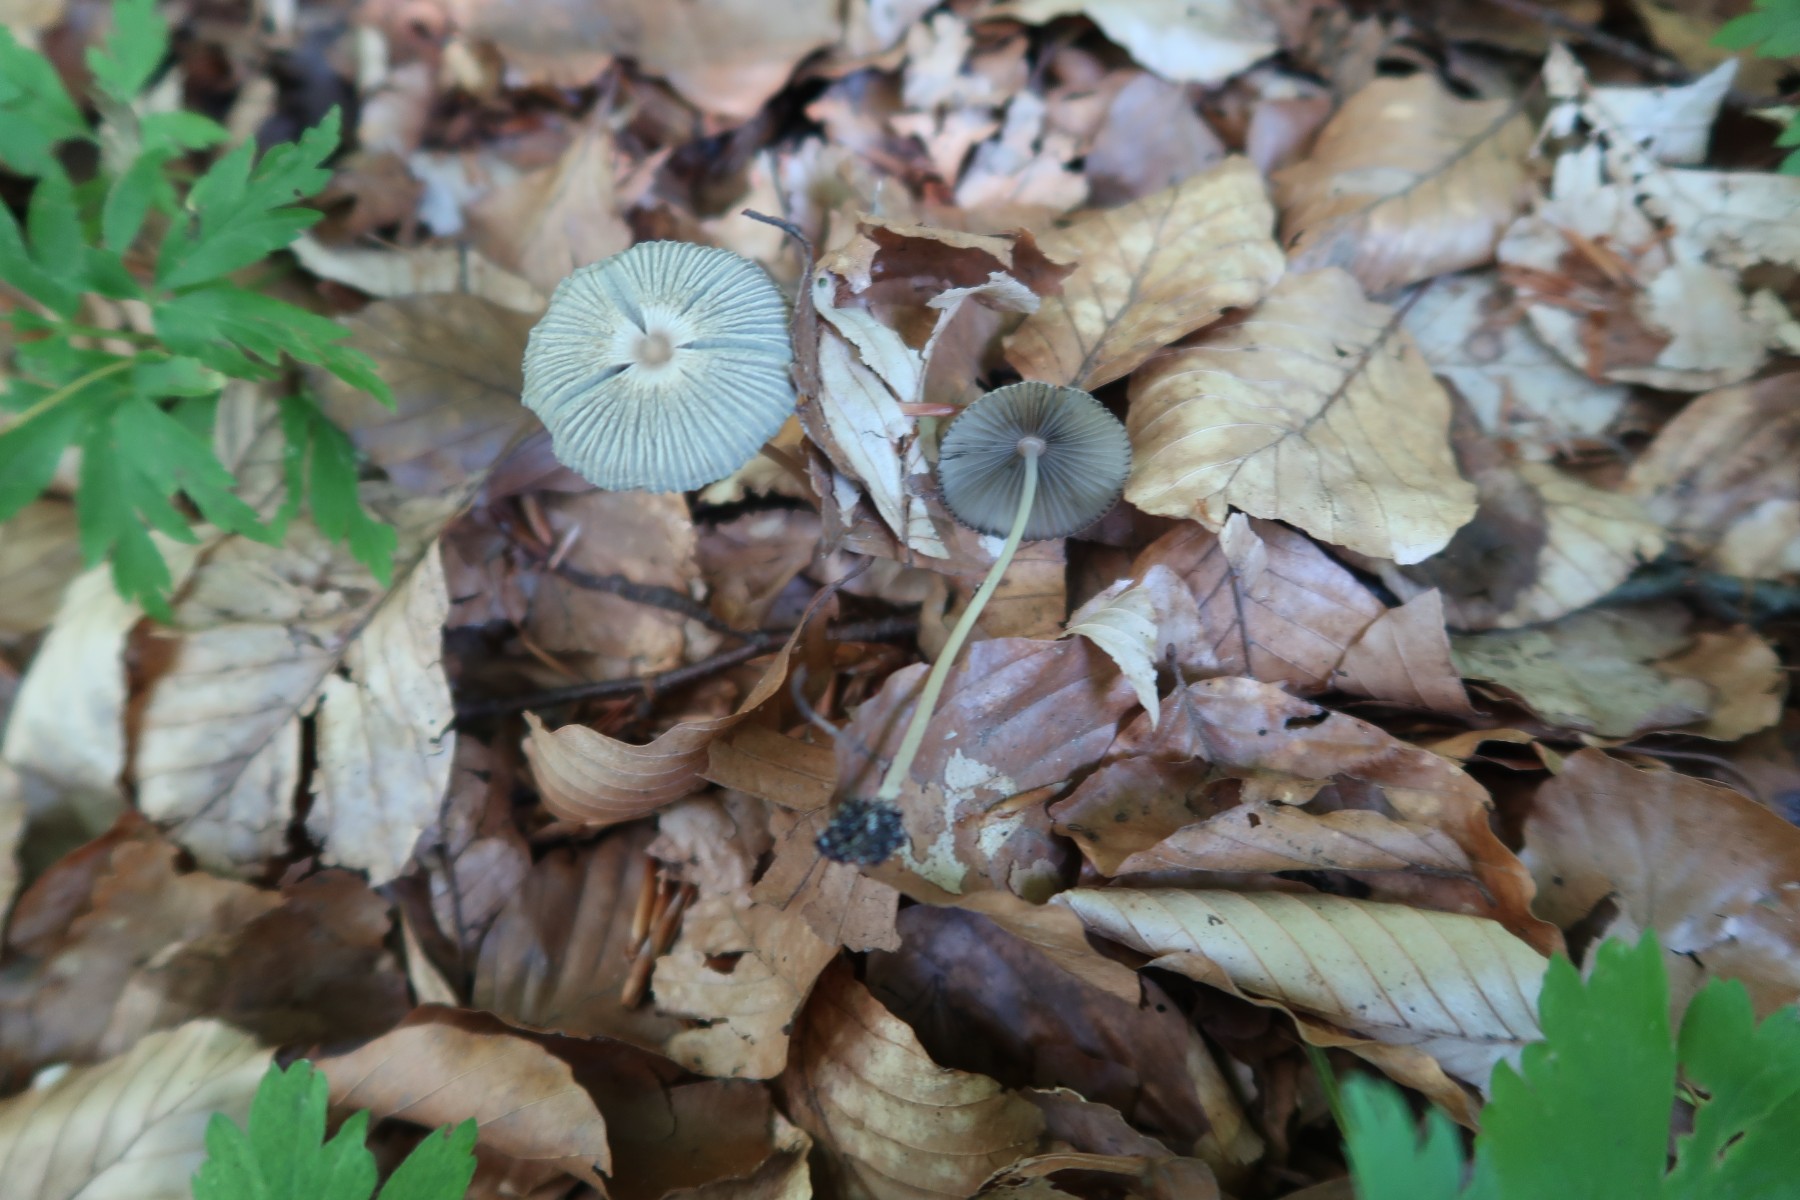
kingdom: Fungi
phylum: Basidiomycota
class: Agaricomycetes
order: Agaricales
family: Psathyrellaceae
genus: Parasola
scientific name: Parasola lactea
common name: glat hjulhat
